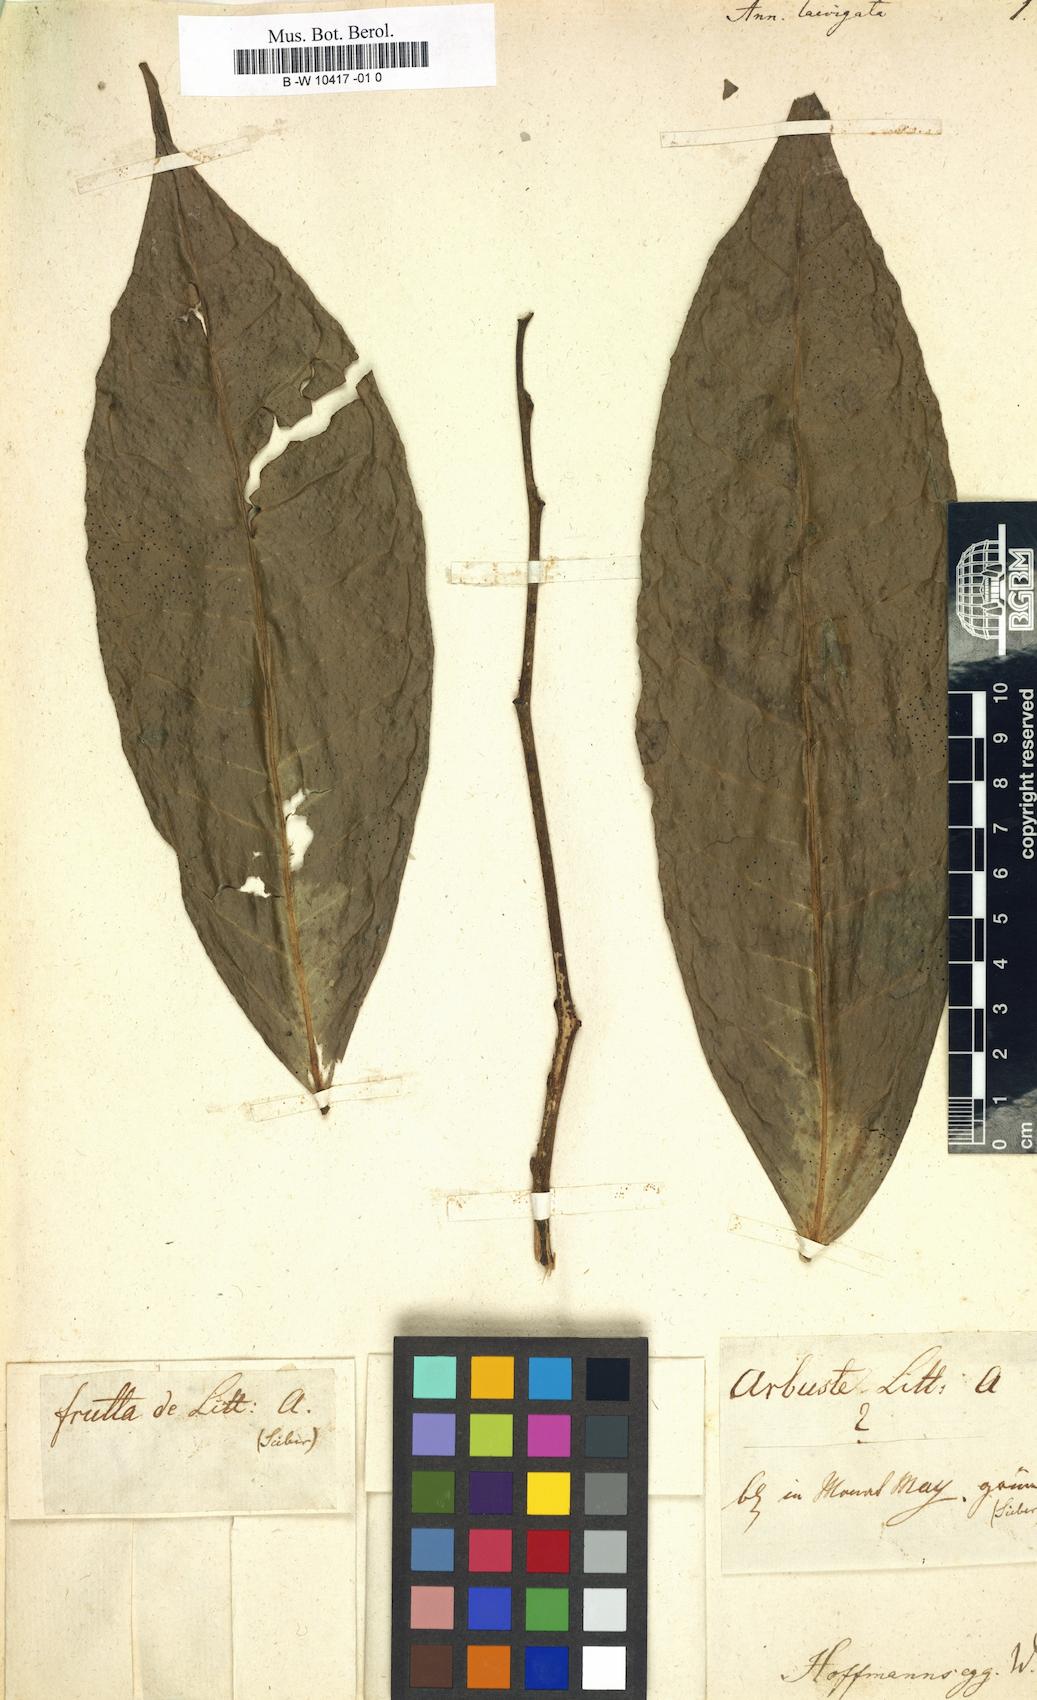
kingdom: Plantae
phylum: Tracheophyta
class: Magnoliopsida
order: Magnoliales
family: Annonaceae
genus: Xylopia
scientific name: Xylopia laevigata
